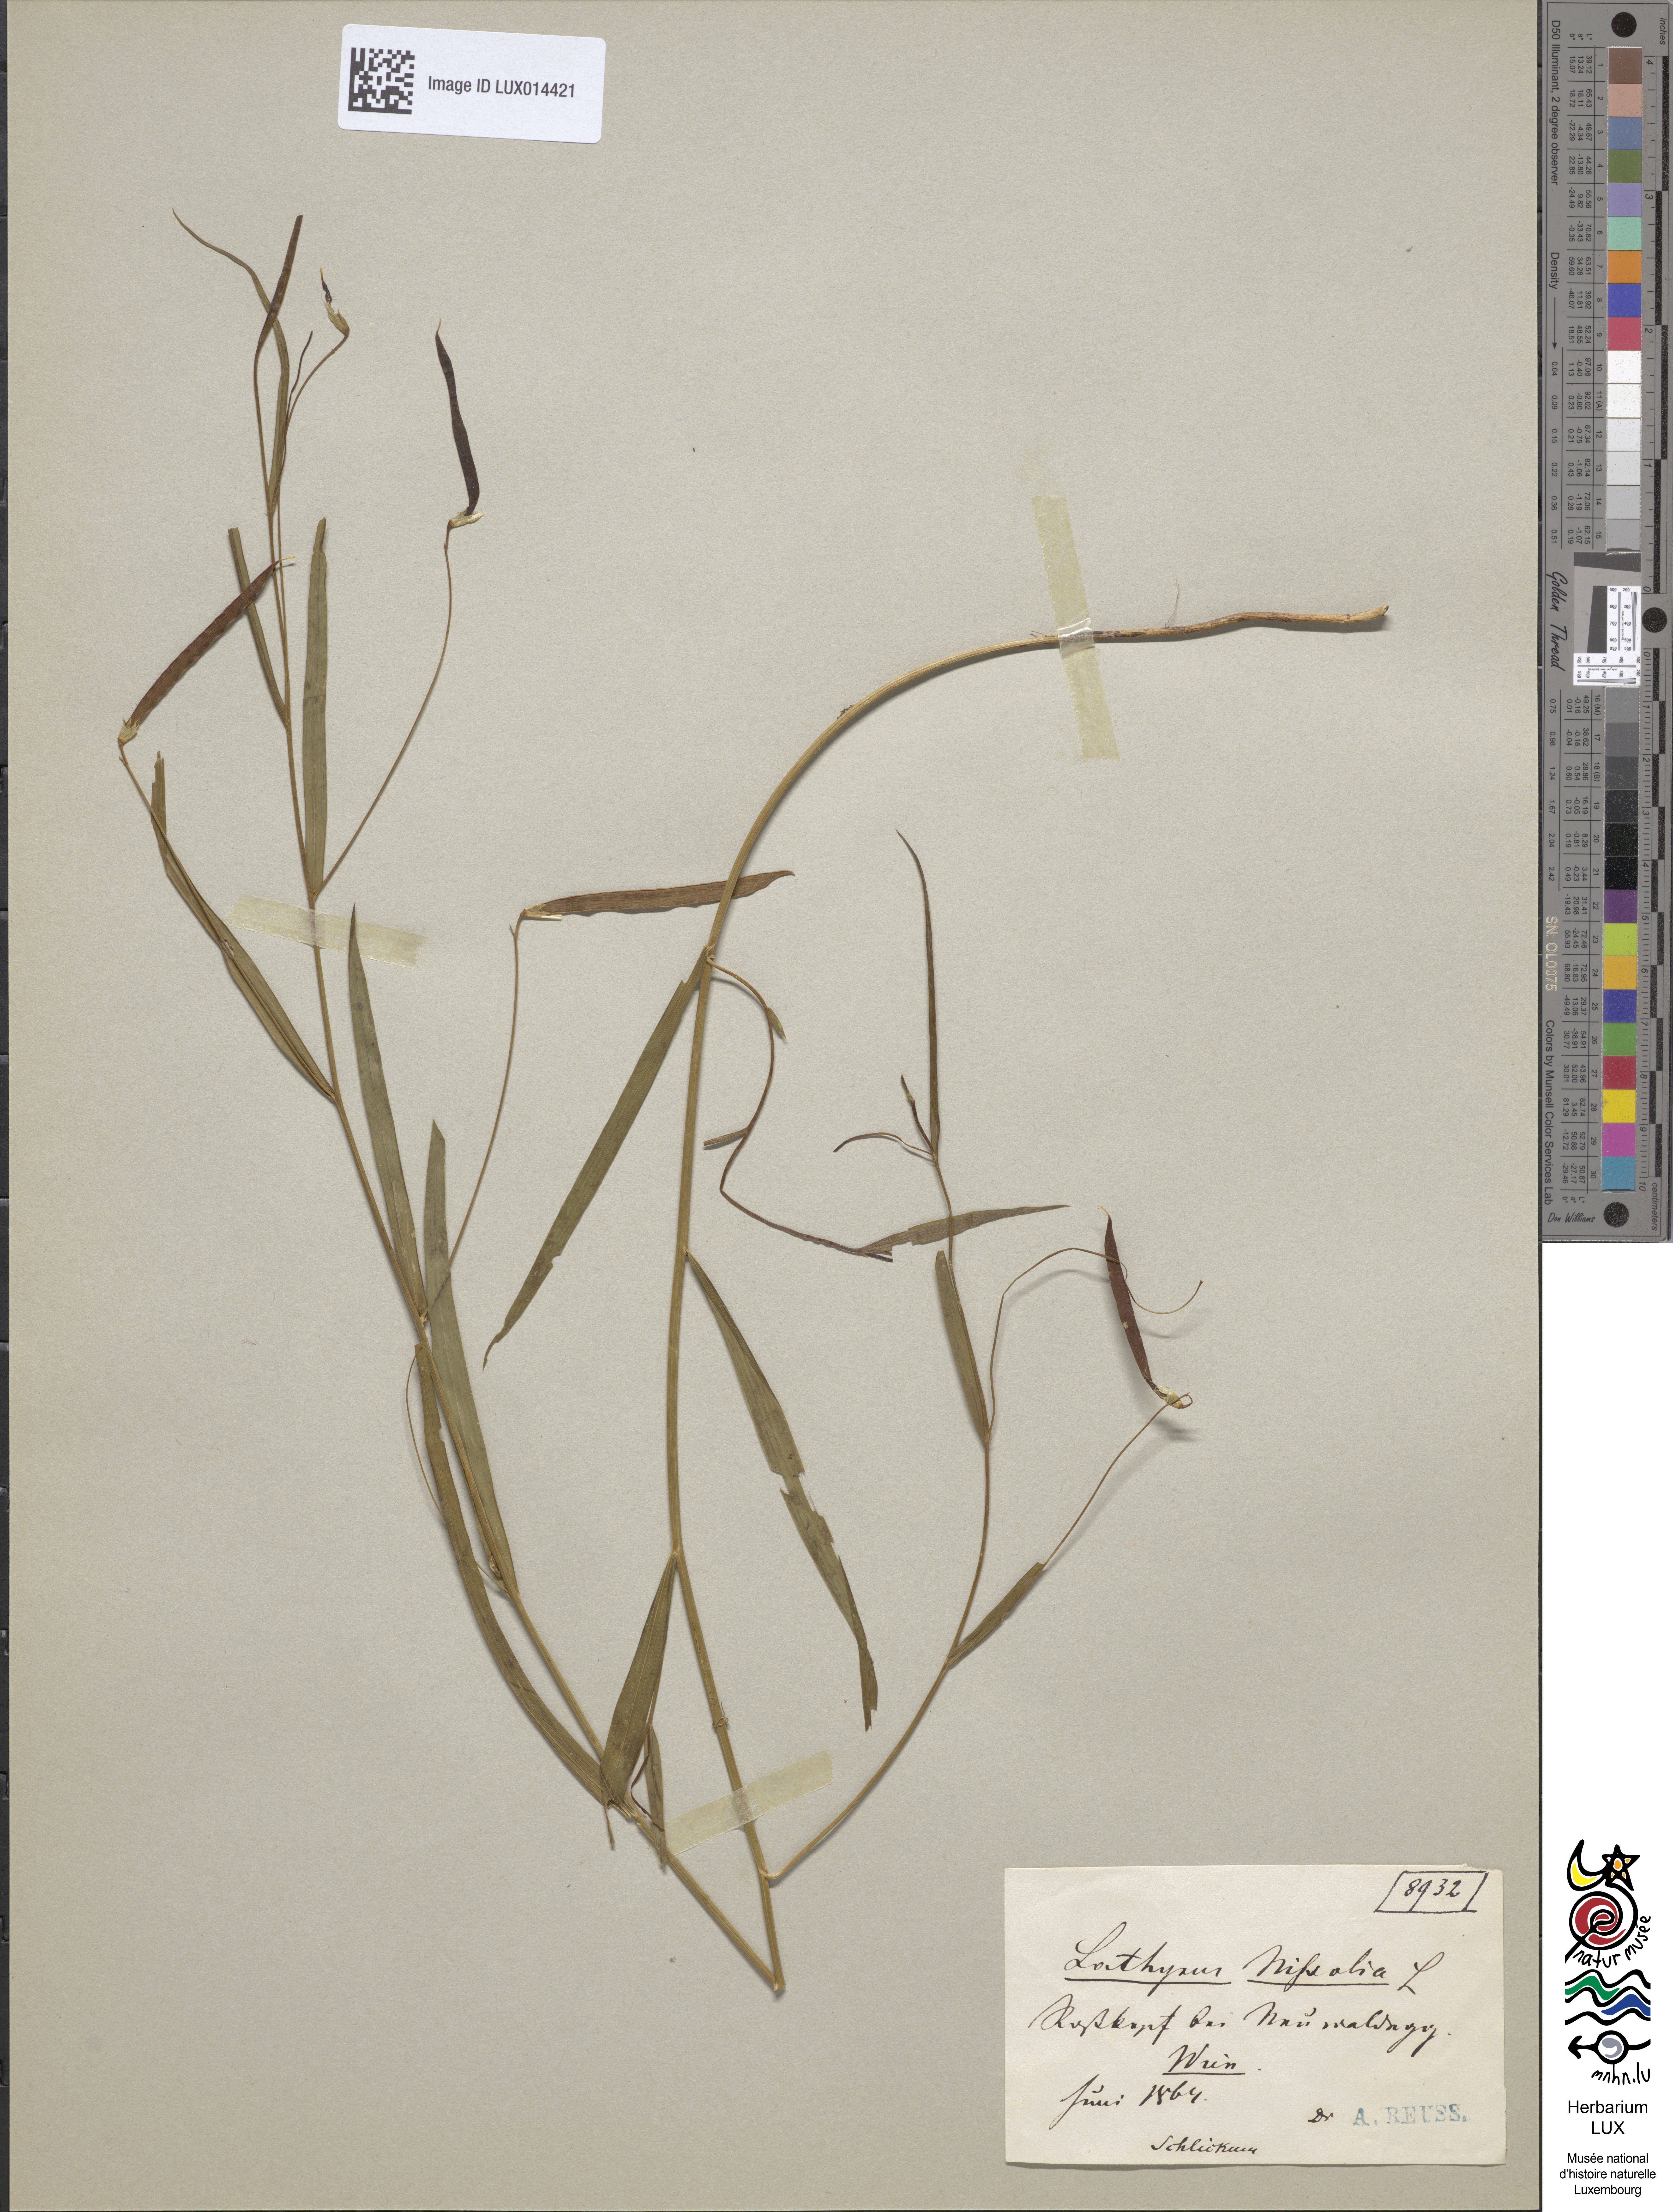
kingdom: Plantae
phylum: Tracheophyta
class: Magnoliopsida
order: Fabales
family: Fabaceae
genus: Lathyrus
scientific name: Lathyrus nissolia
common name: Grass vetchling
